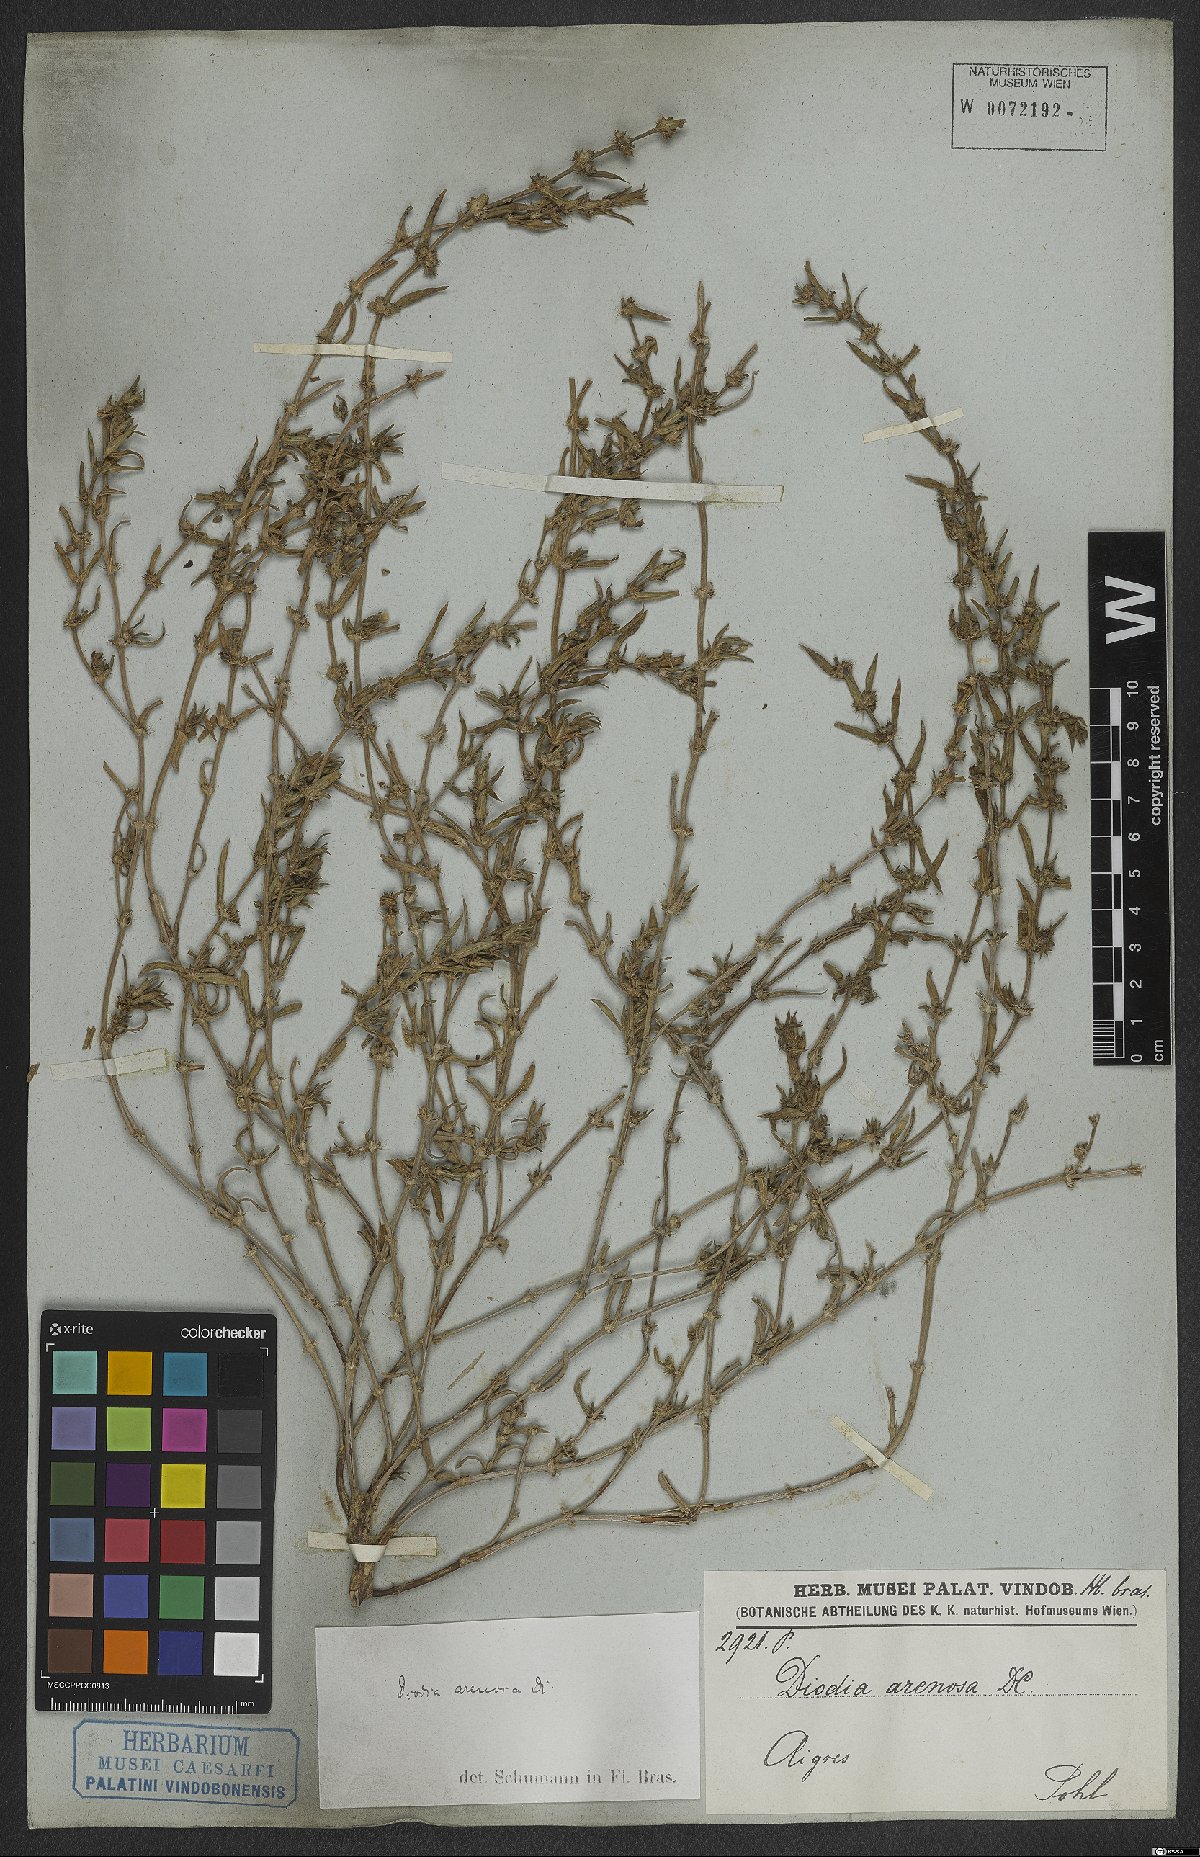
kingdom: Plantae
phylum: Tracheophyta
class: Magnoliopsida
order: Gentianales
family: Rubiaceae
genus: Hexasepalum
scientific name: Hexasepalum apiculatum
